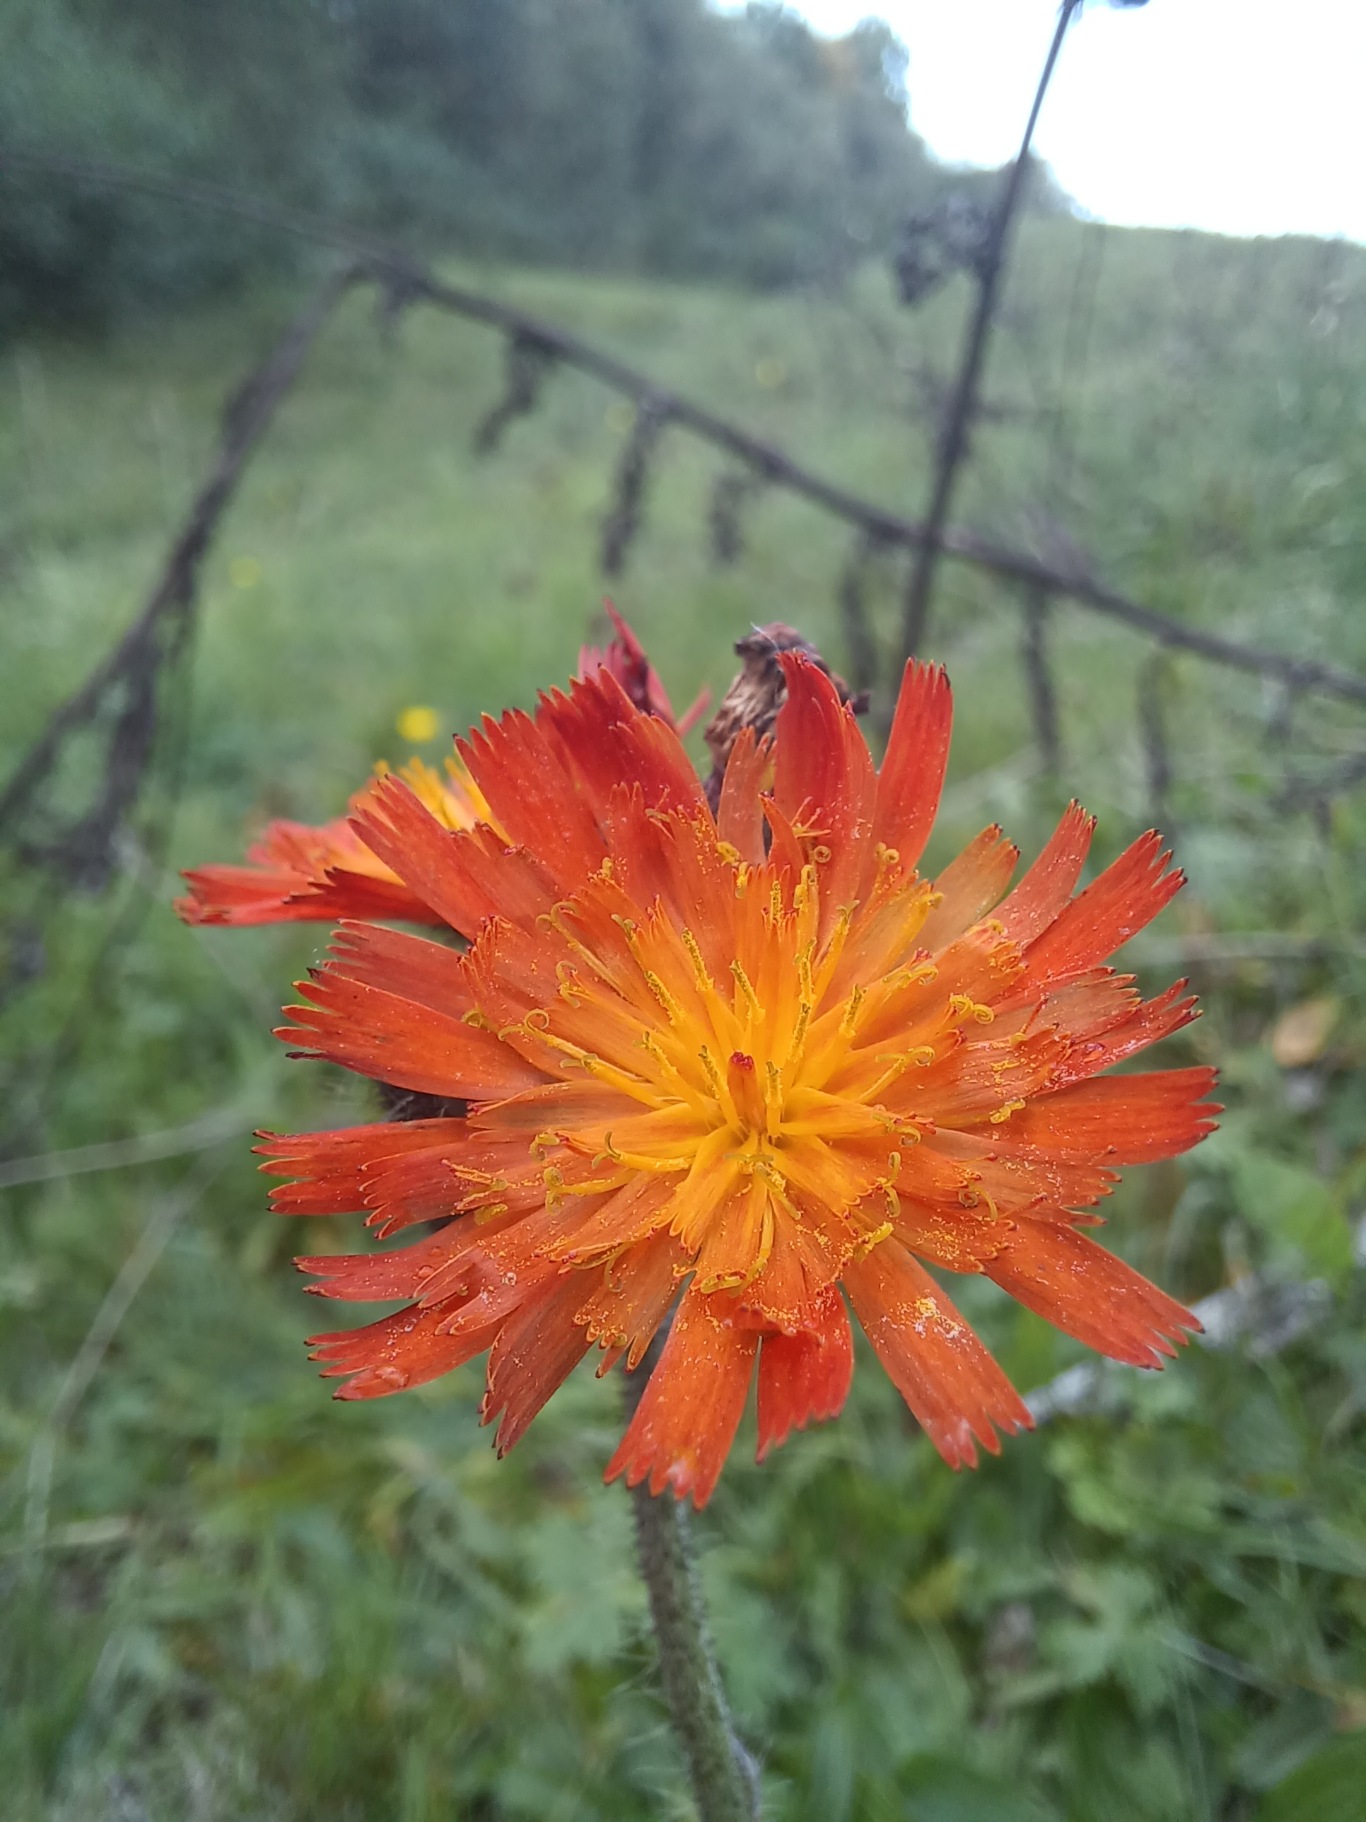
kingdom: Plantae
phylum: Tracheophyta
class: Magnoliopsida
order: Asterales
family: Asteraceae
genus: Pilosella
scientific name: Pilosella aurantiaca
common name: Pomerans-høgeurt
